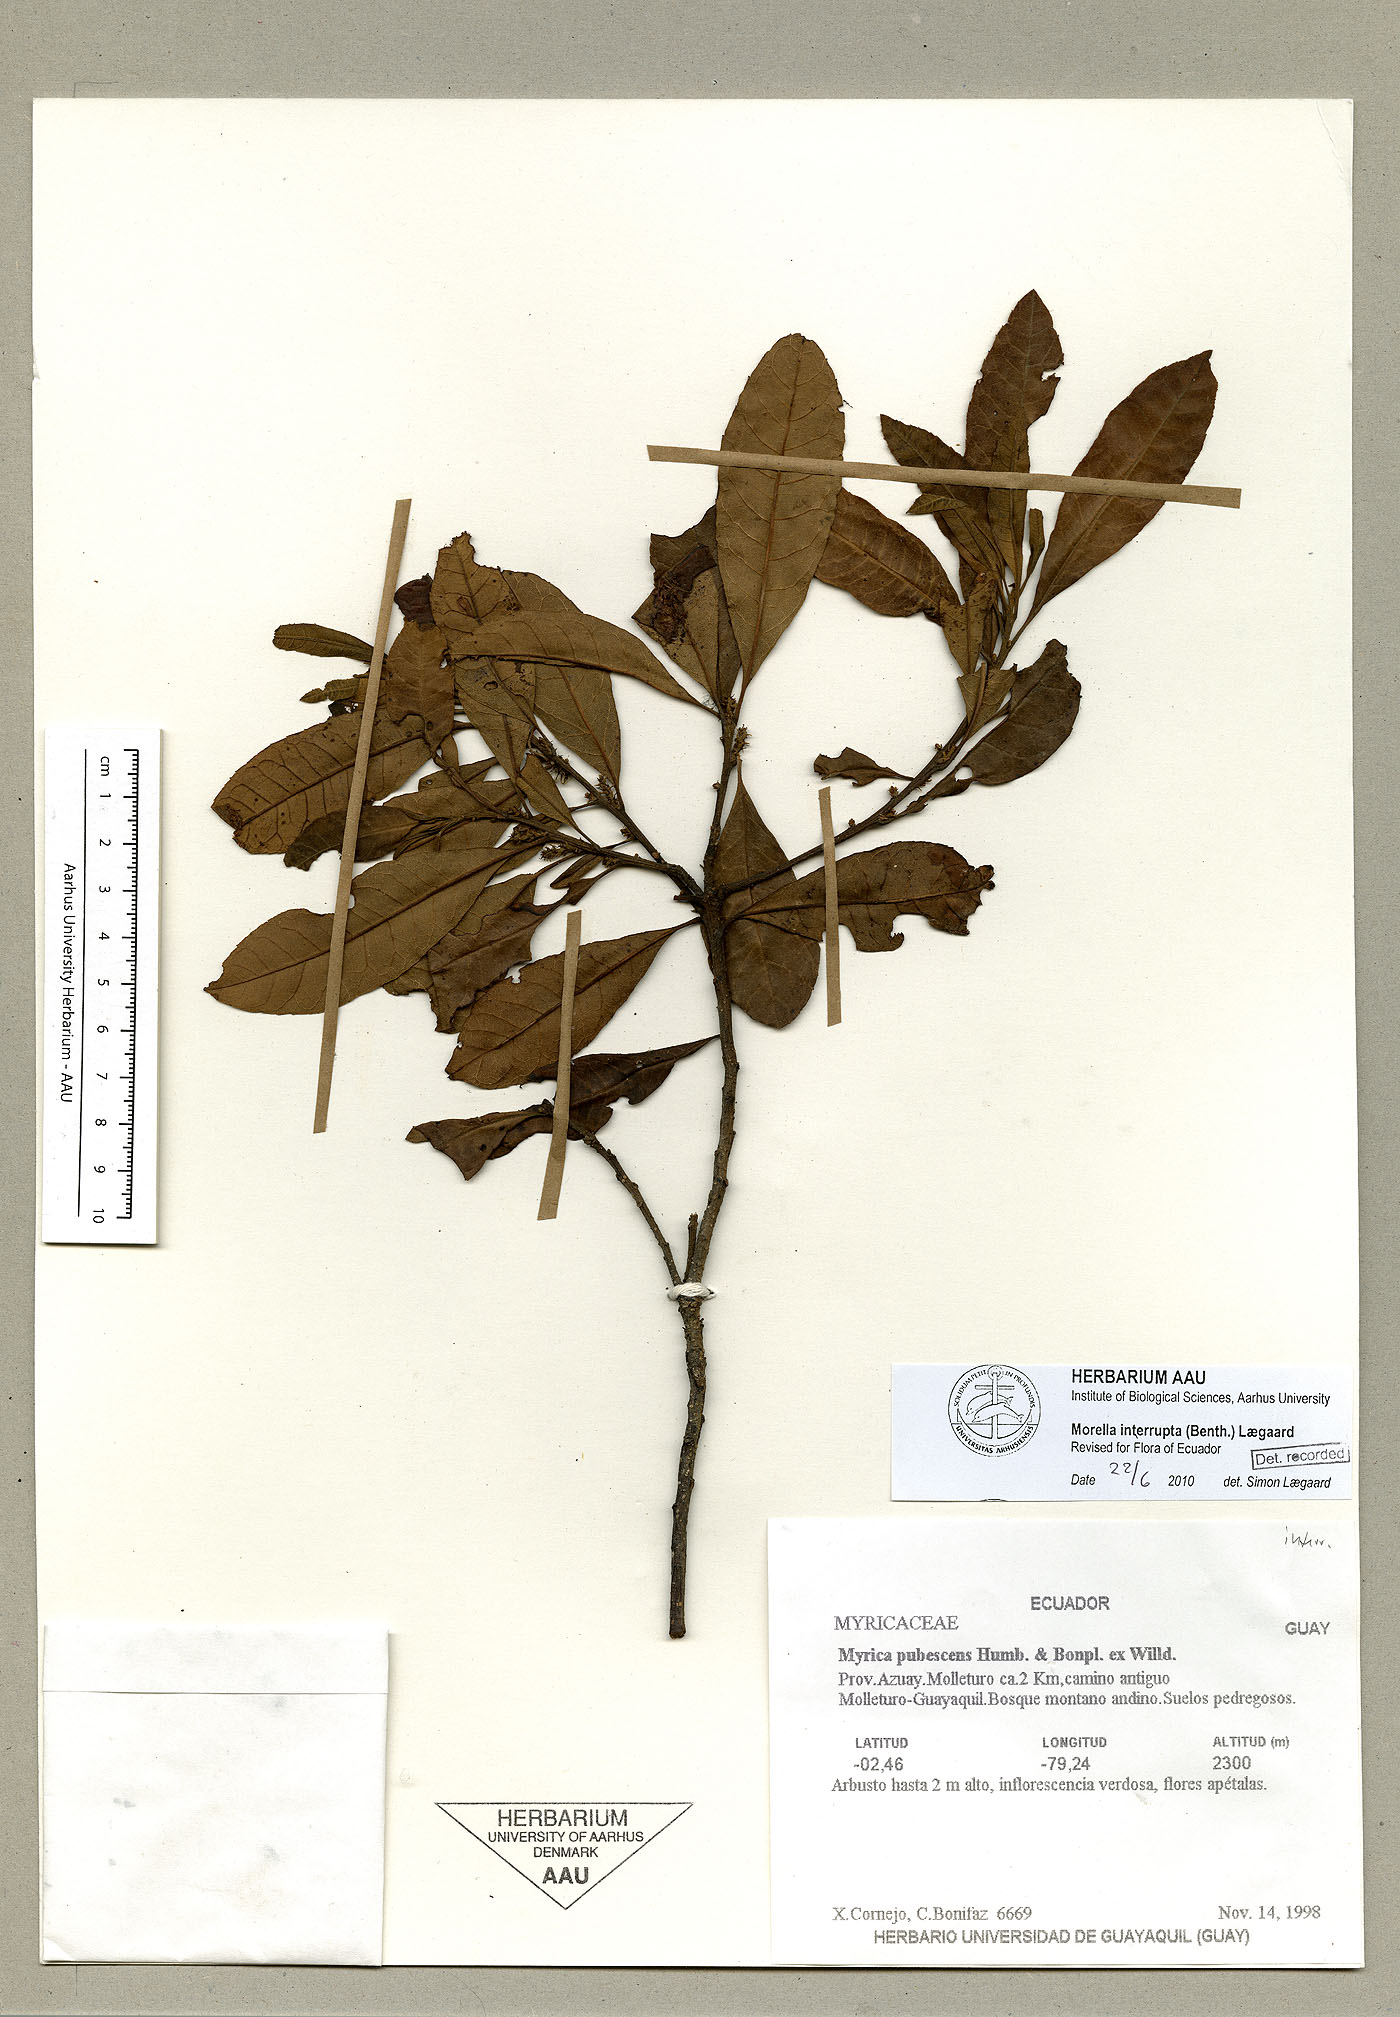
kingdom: Plantae
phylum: Tracheophyta
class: Magnoliopsida
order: Fagales
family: Myricaceae
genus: Morella
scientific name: Morella interrupta
